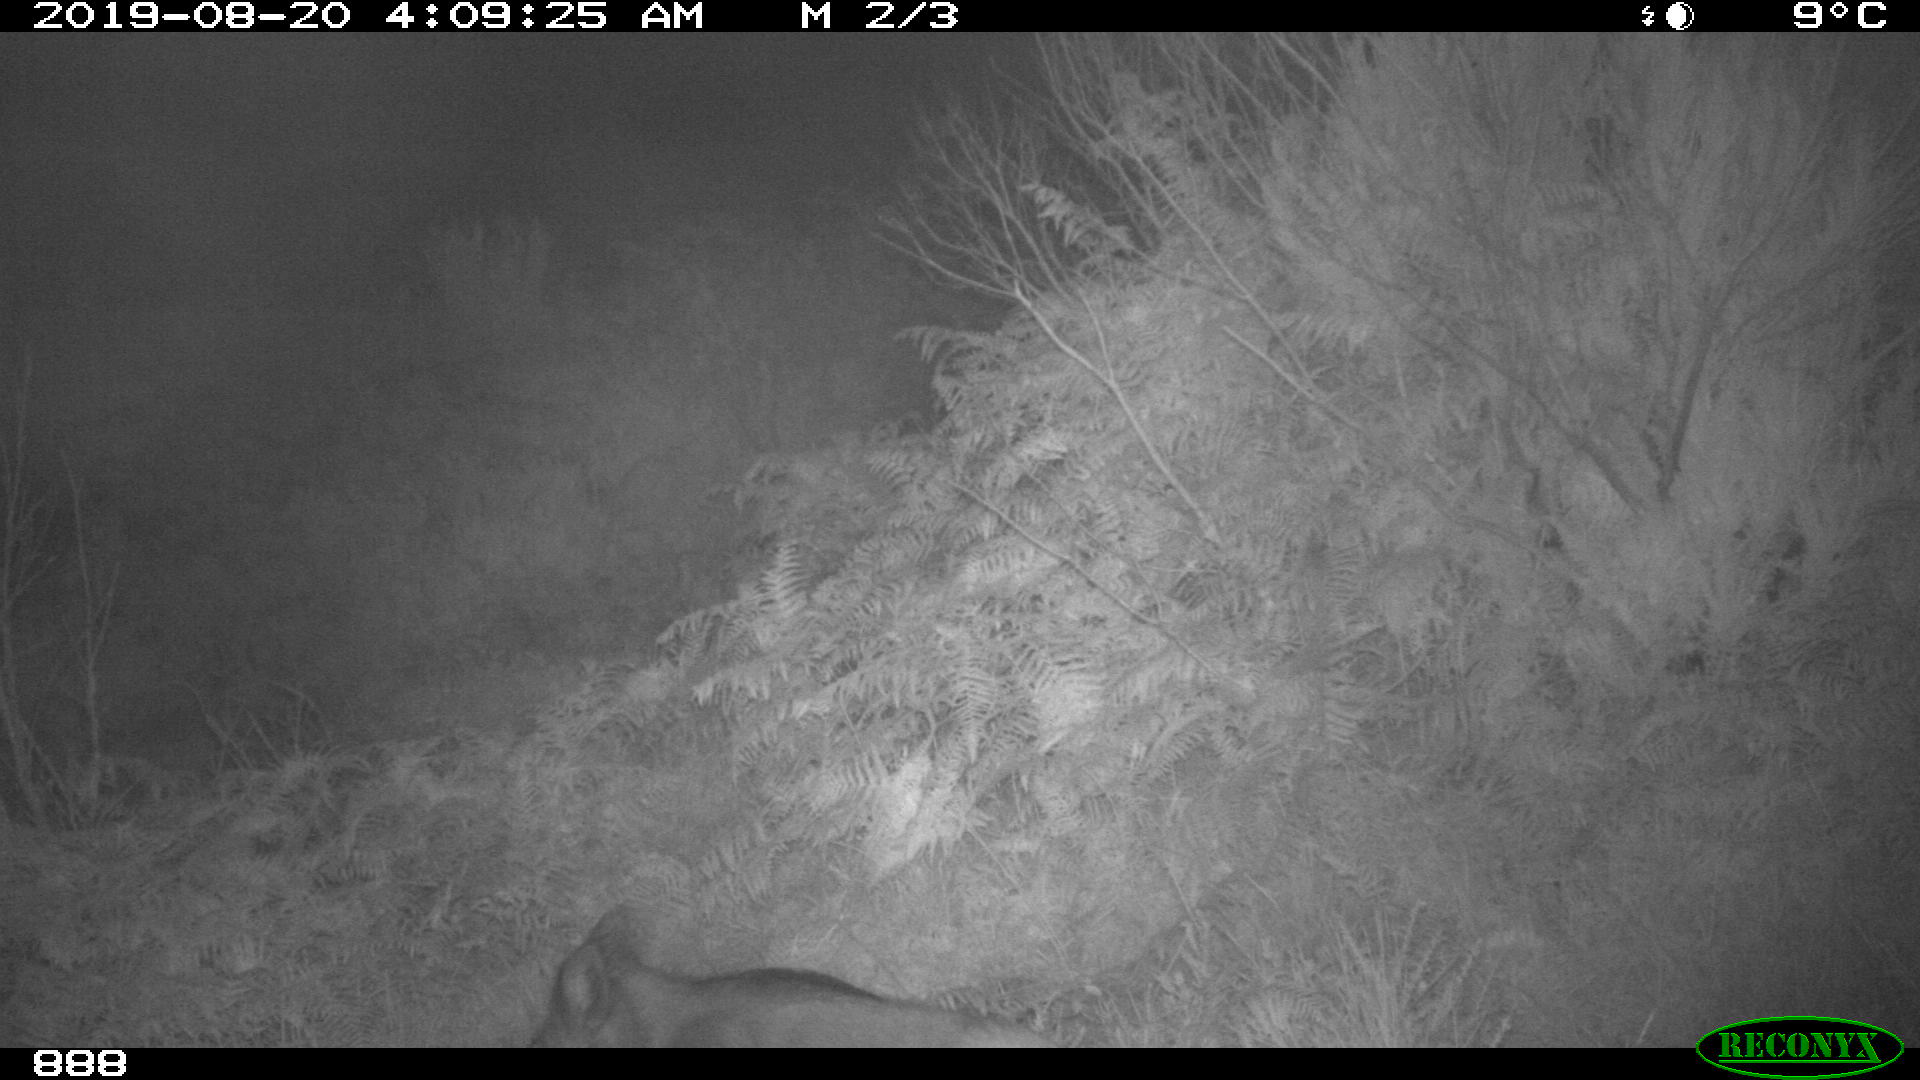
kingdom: Animalia
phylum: Chordata
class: Mammalia
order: Artiodactyla
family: Suidae
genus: Sus
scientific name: Sus scrofa
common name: Wild boar
